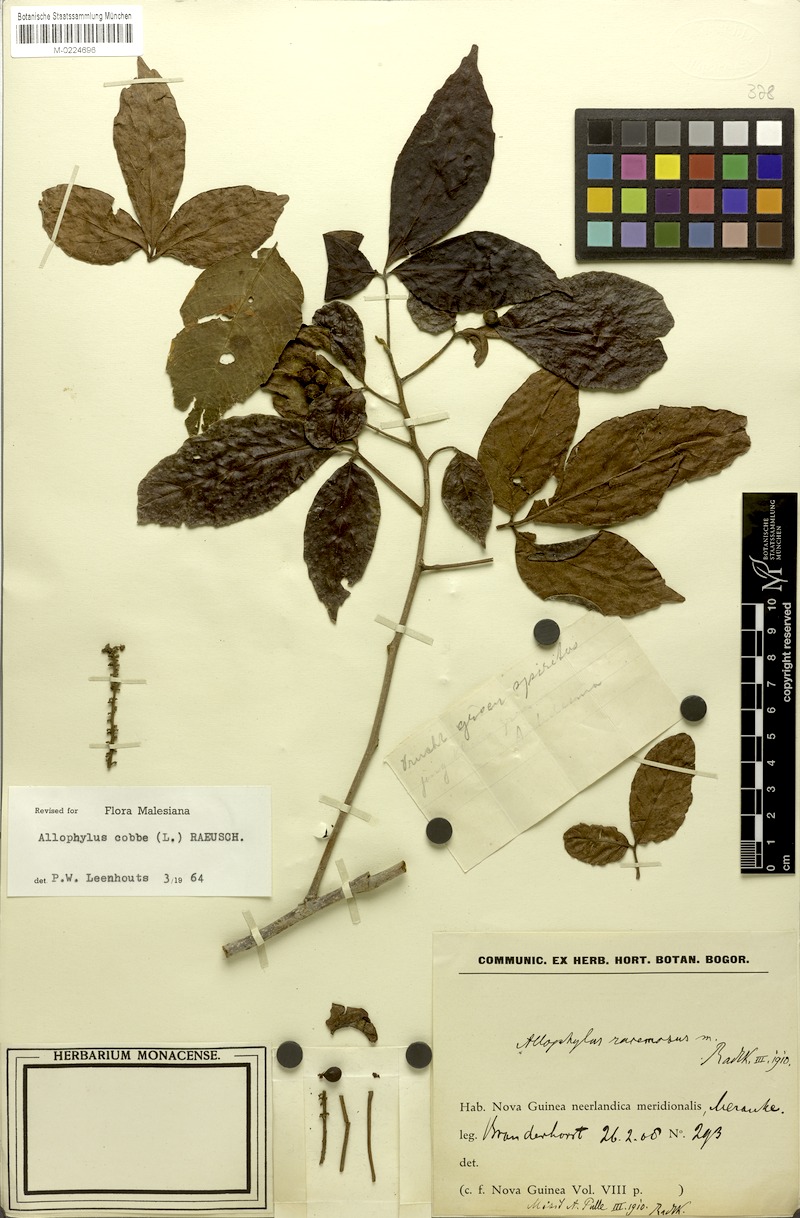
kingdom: Plantae
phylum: Tracheophyta
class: Magnoliopsida
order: Sapindales
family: Sapindaceae
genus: Allophylus
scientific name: Allophylus racemosus
